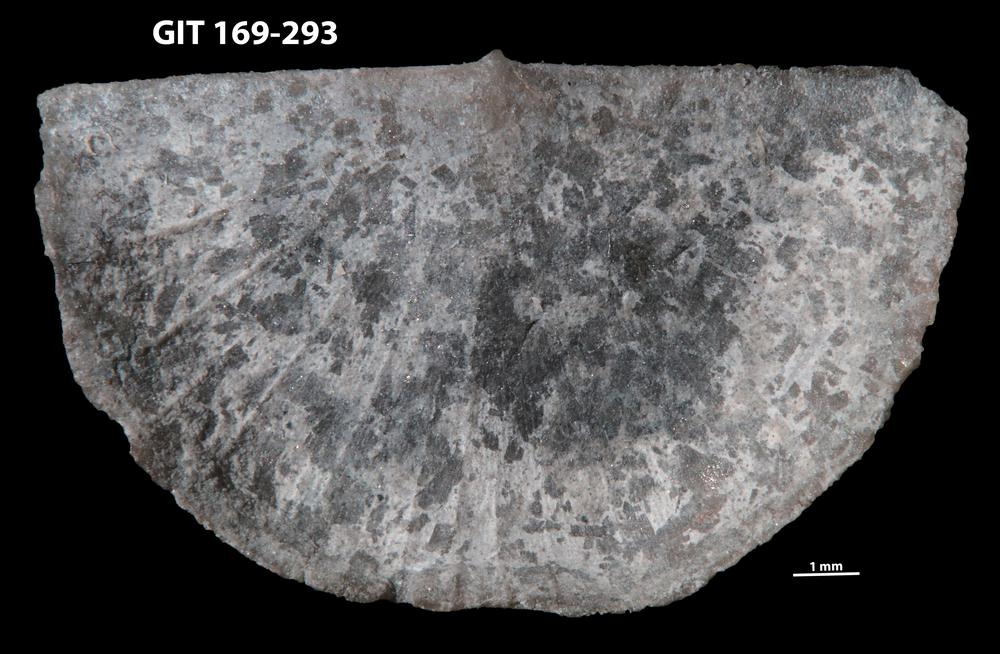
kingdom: Animalia
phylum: Brachiopoda
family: Amphistrophiidae
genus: Eoamphistrophia
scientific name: Eoamphistrophia whittardi
